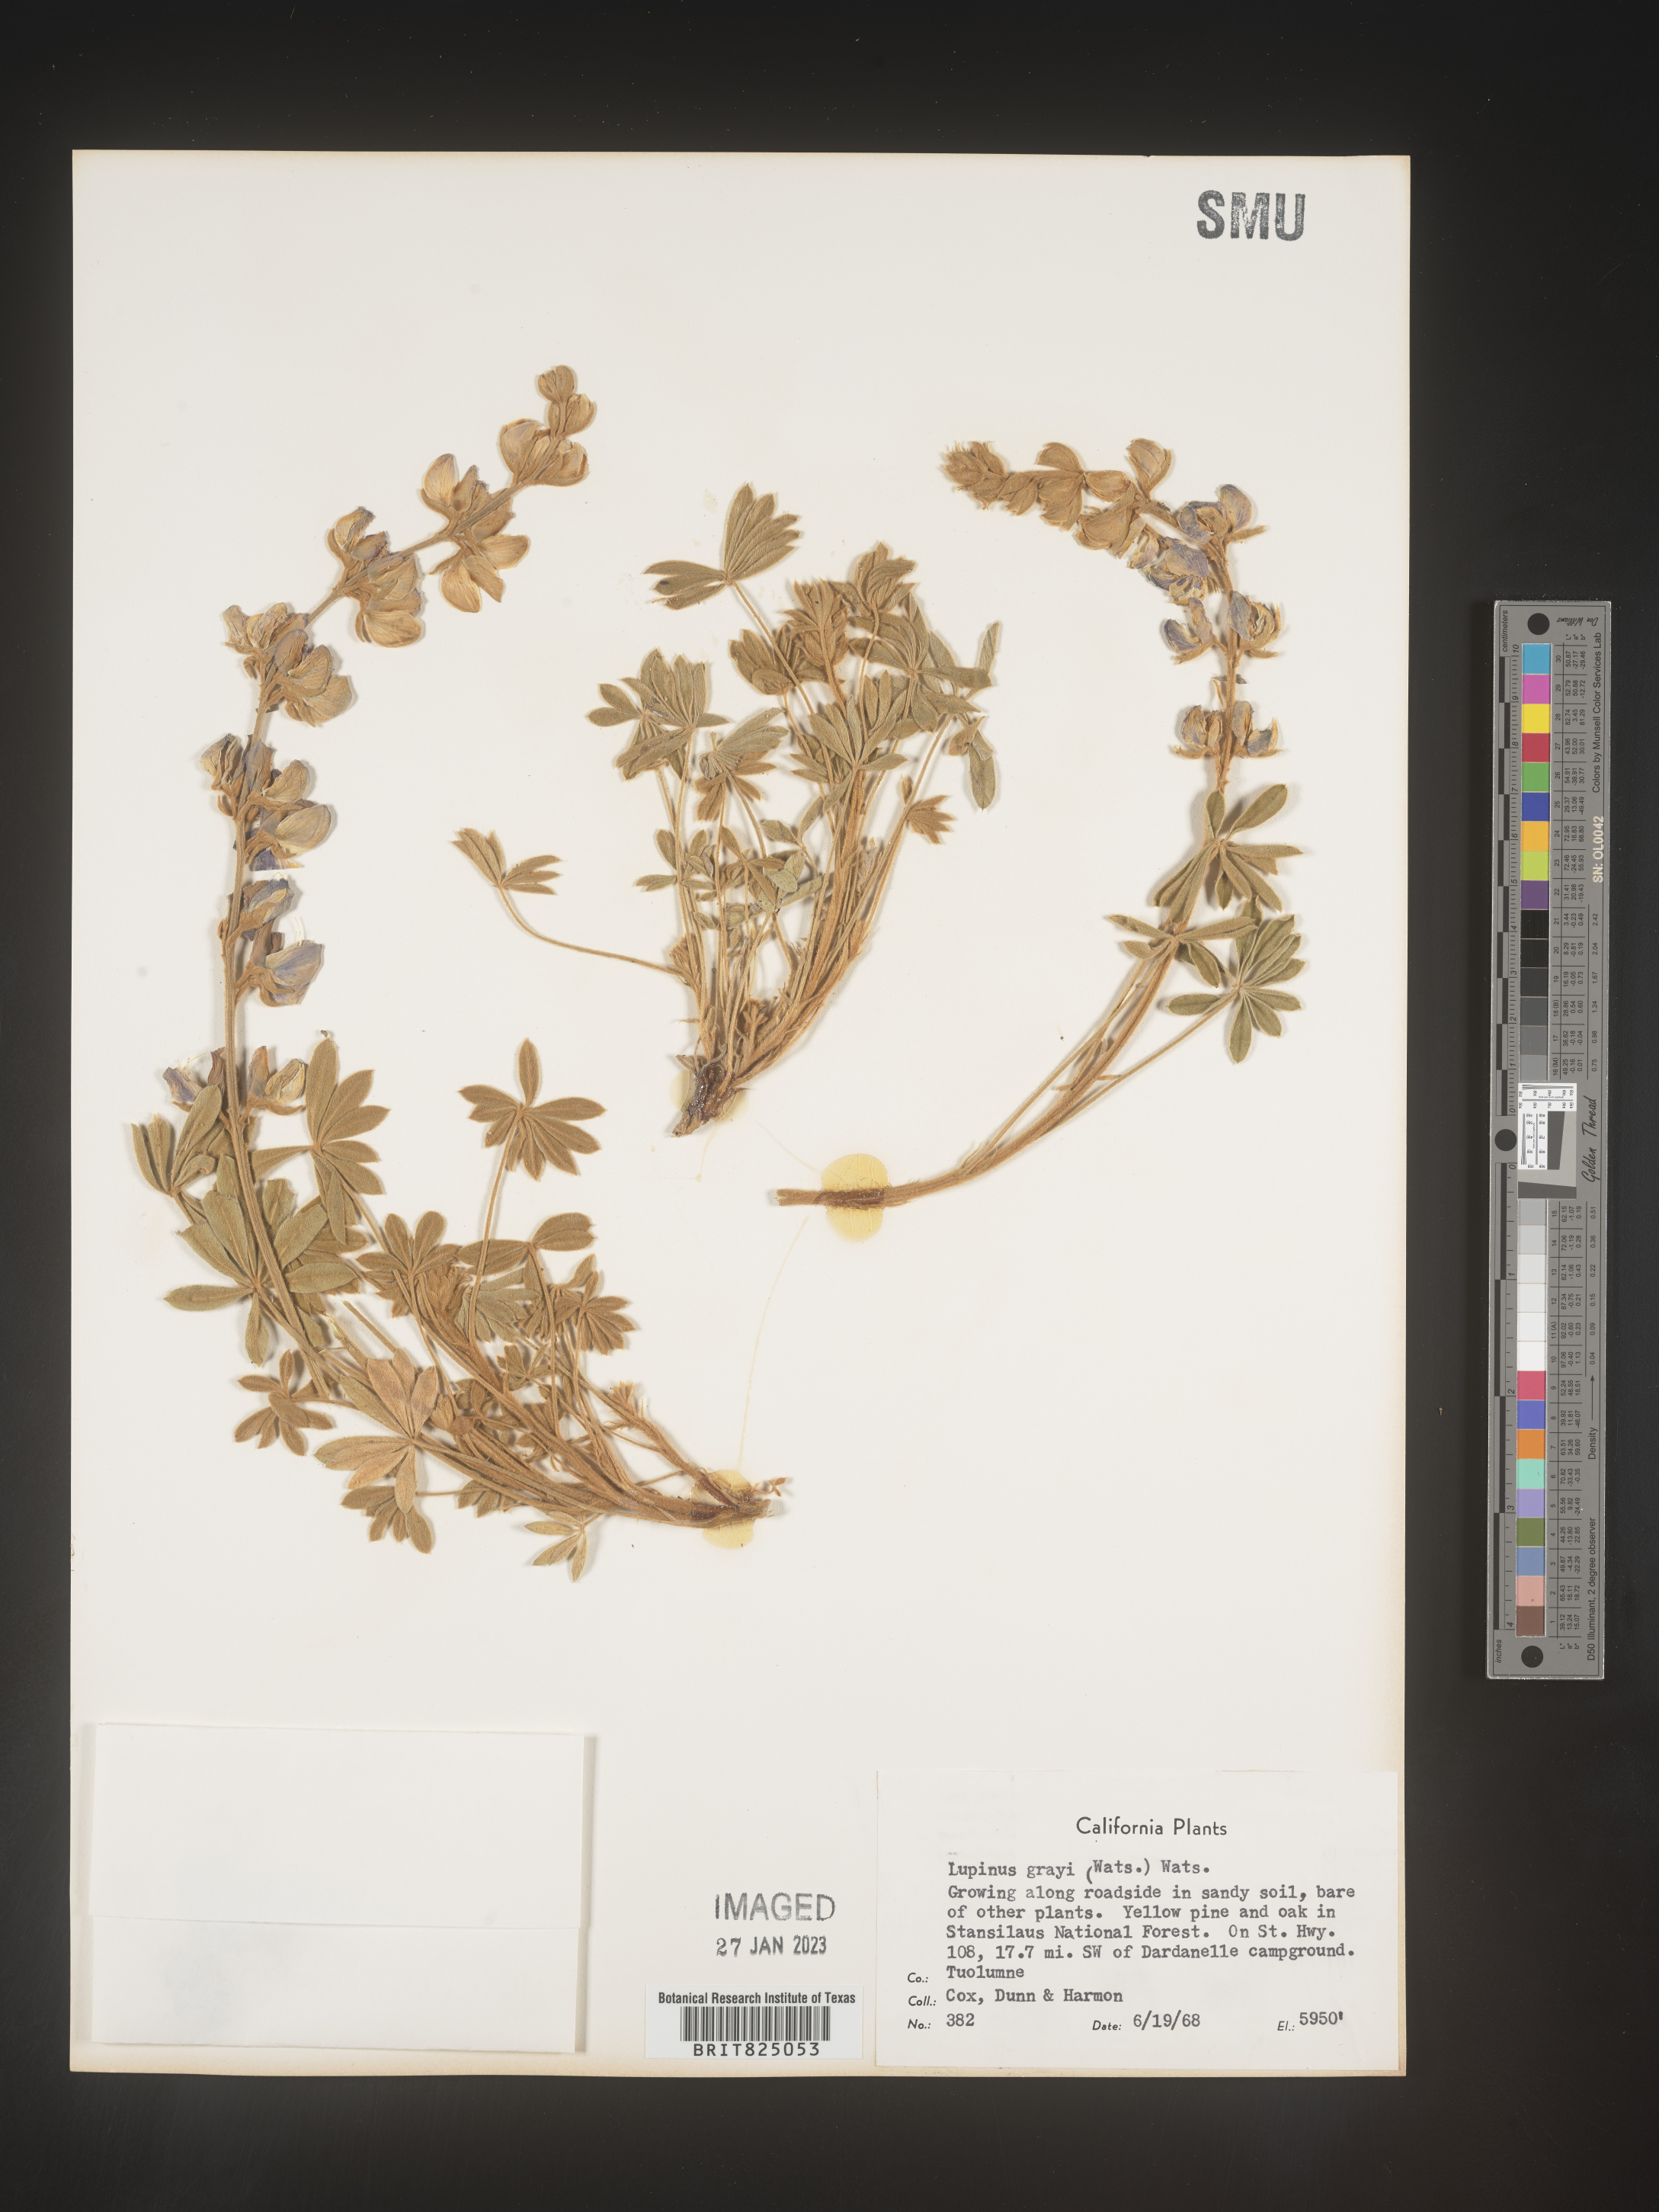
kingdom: Plantae
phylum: Tracheophyta
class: Magnoliopsida
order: Fabales
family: Fabaceae
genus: Lupinus
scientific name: Lupinus
